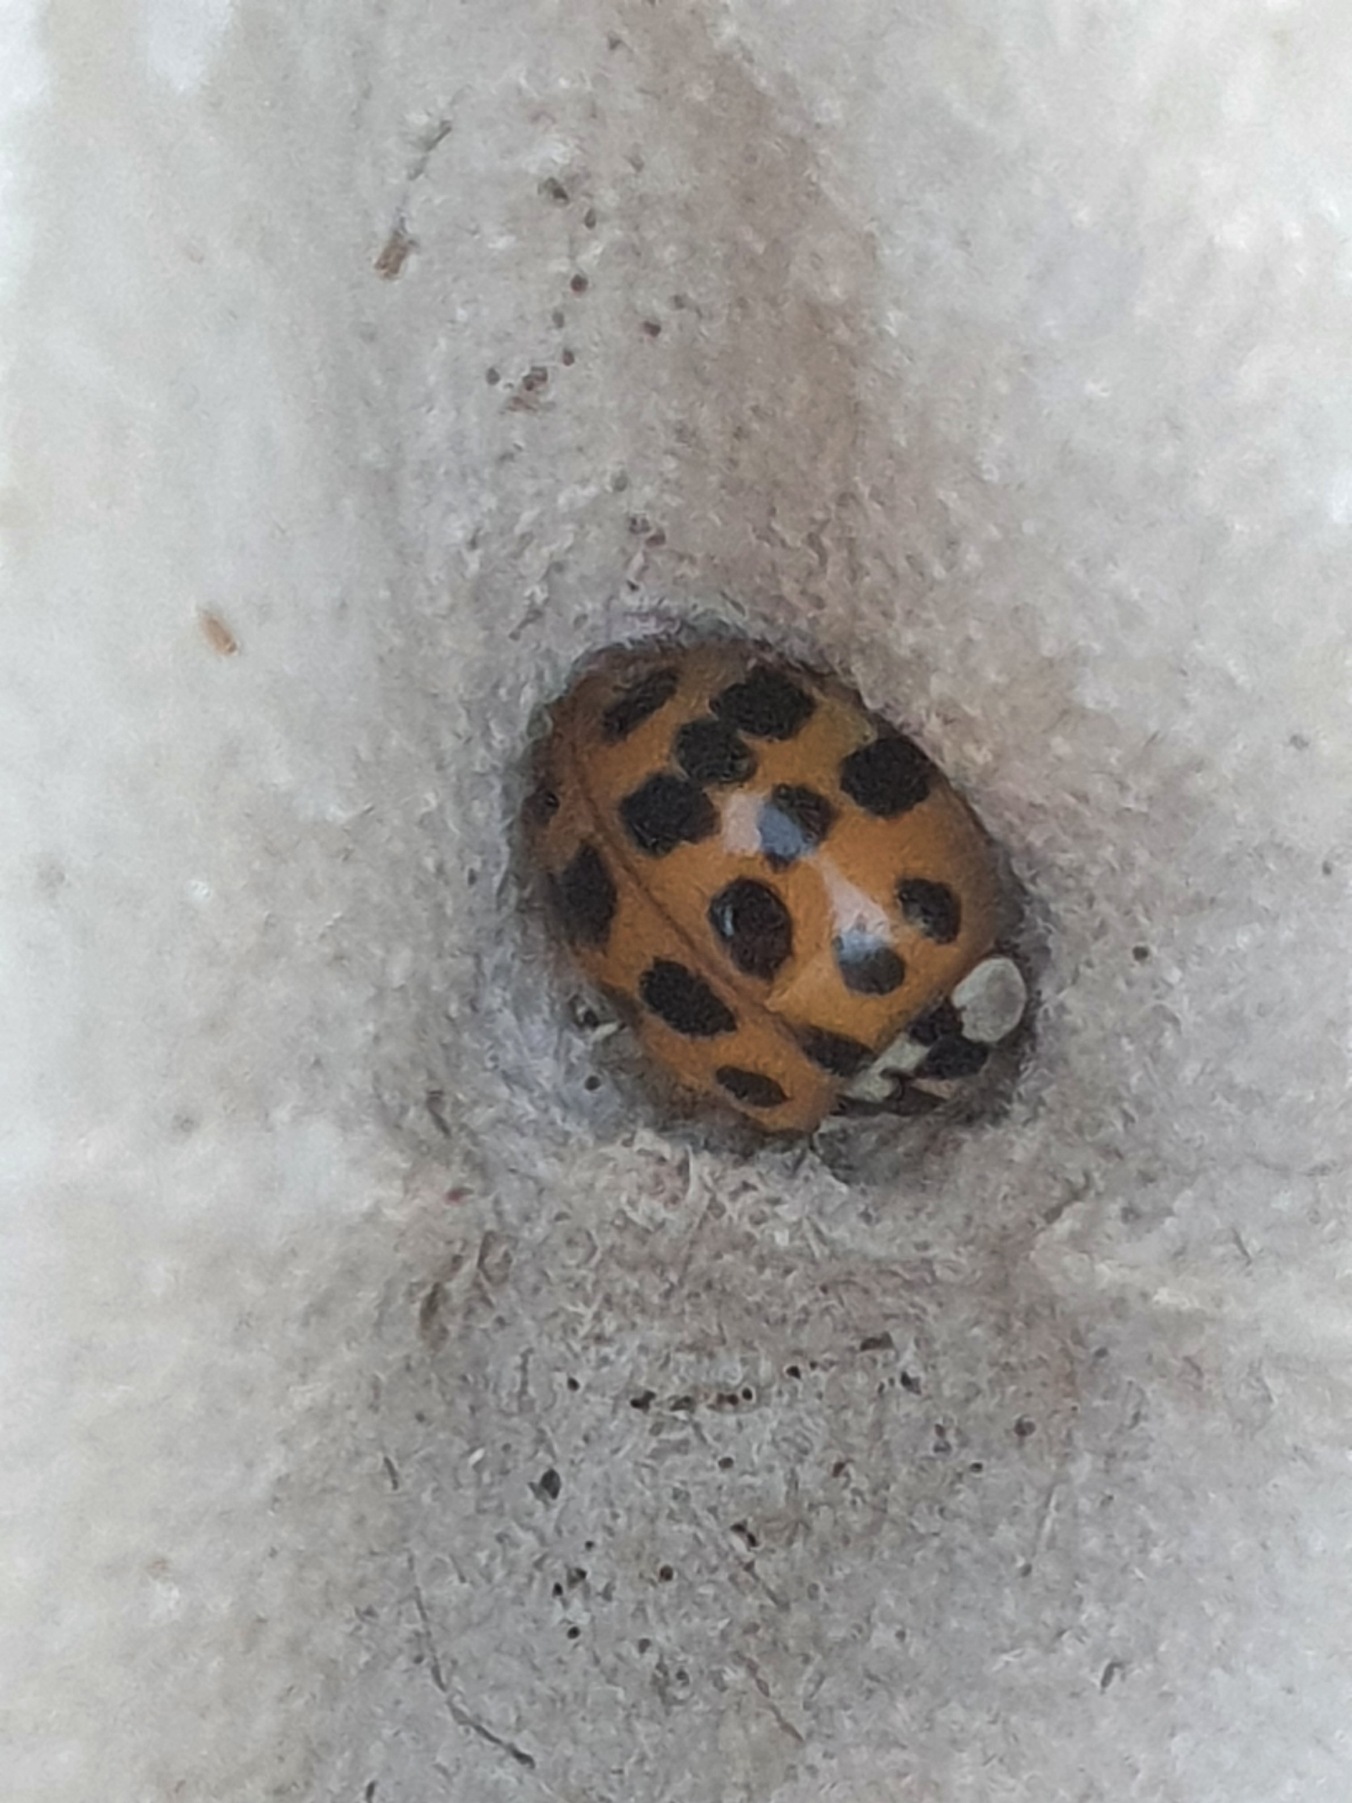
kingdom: Animalia
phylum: Arthropoda
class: Insecta
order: Coleoptera
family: Coccinellidae
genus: Harmonia
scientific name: Harmonia axyridis
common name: Harlekinmariehøne
